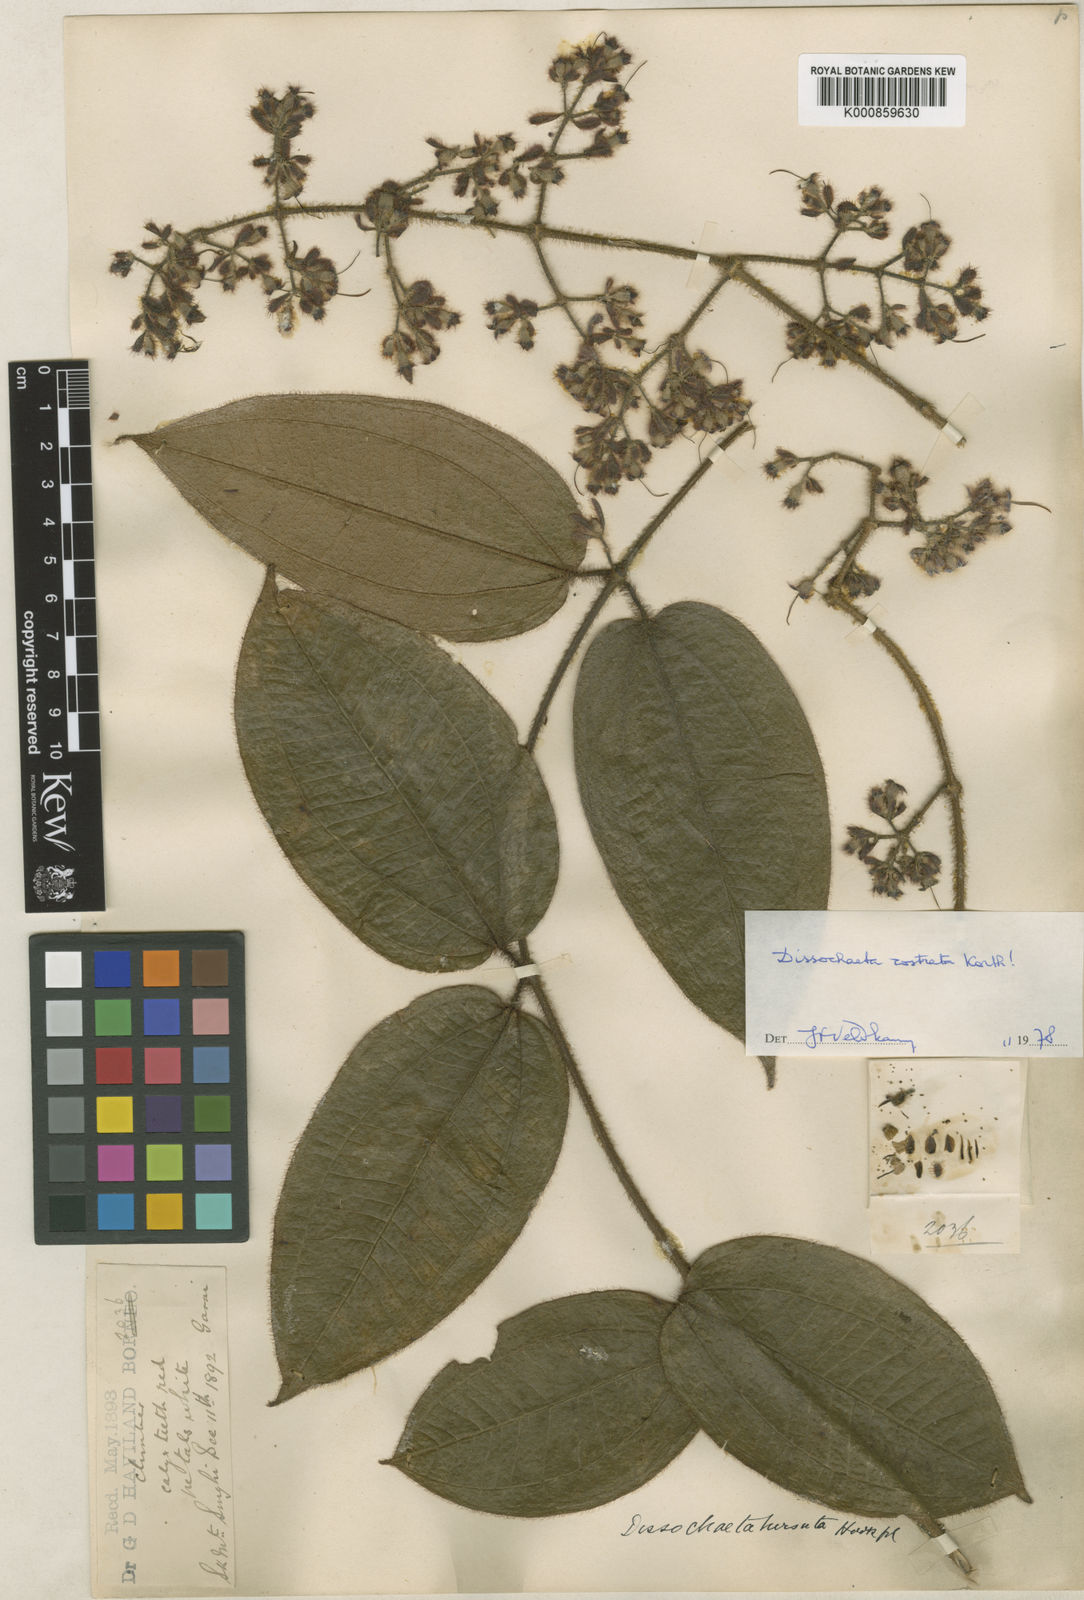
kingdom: Plantae
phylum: Tracheophyta
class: Magnoliopsida
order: Myrtales
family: Melastomataceae
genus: Macrolenes
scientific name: Macrolenes rostrata
